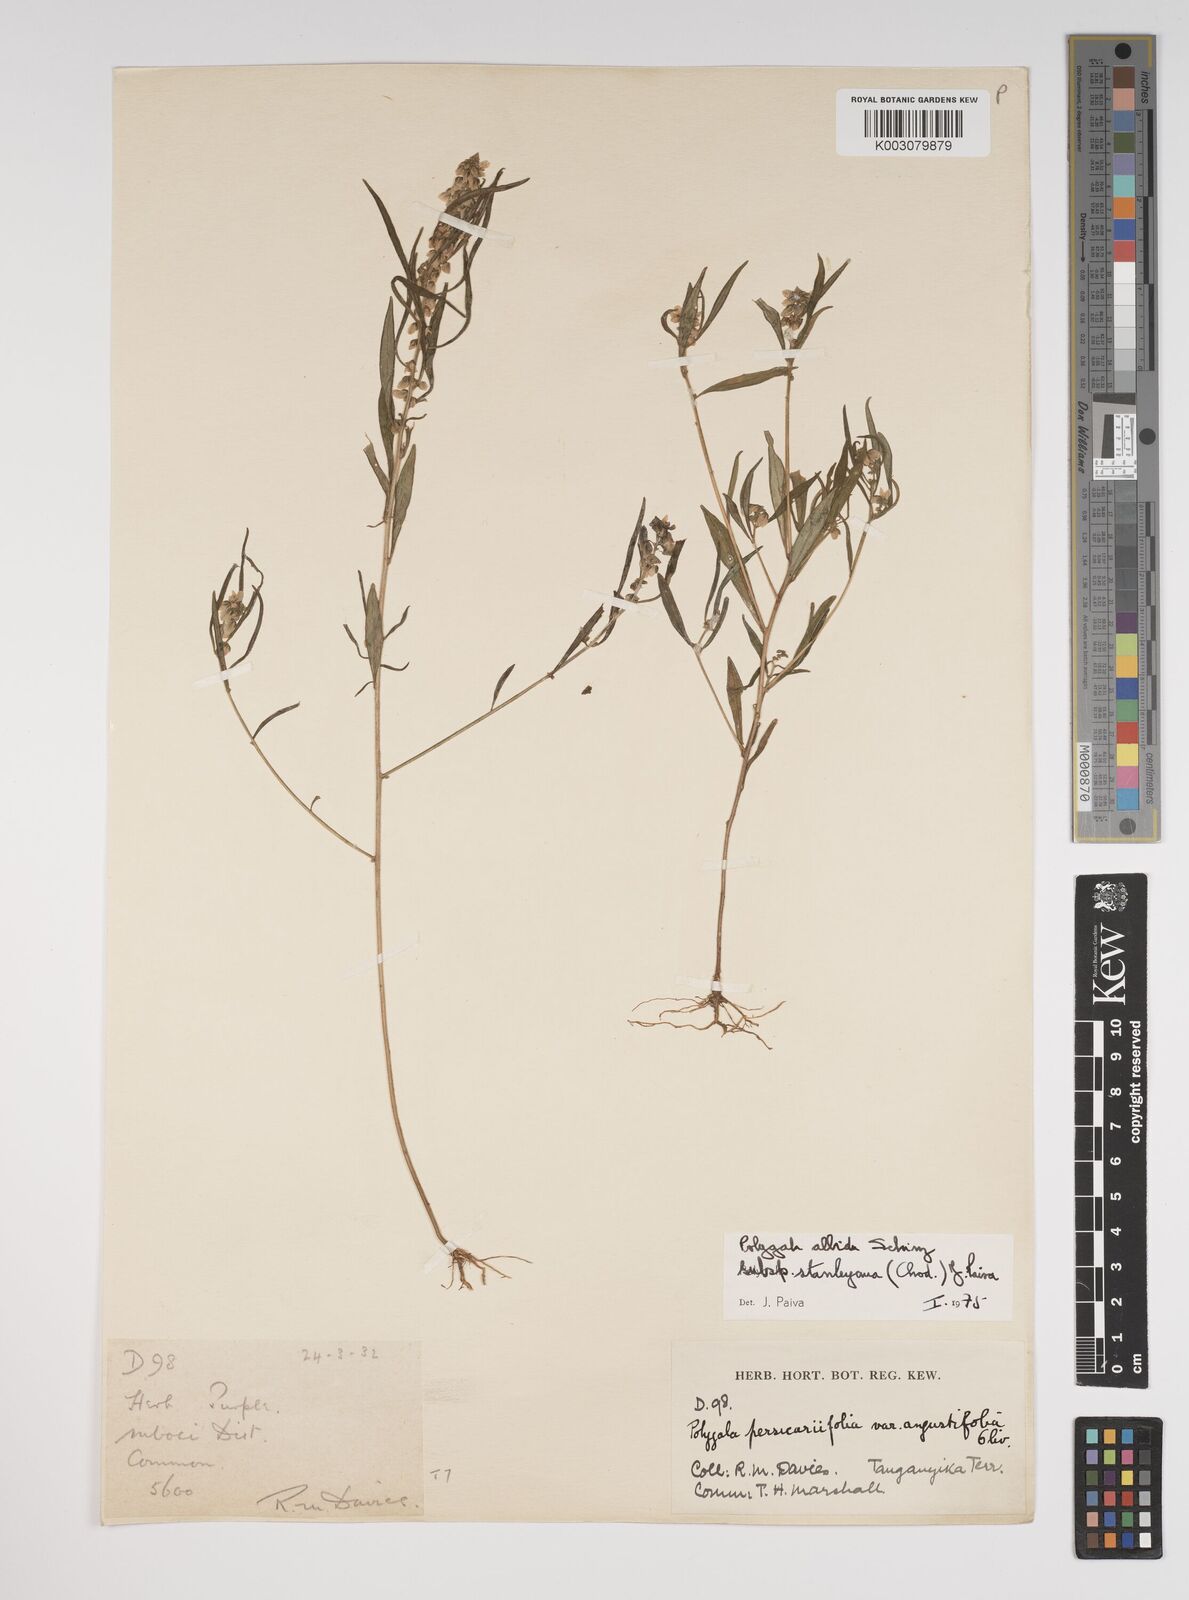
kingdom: Plantae
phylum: Tracheophyta
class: Magnoliopsida
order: Fabales
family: Polygalaceae
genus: Polygala
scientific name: Polygala albida
